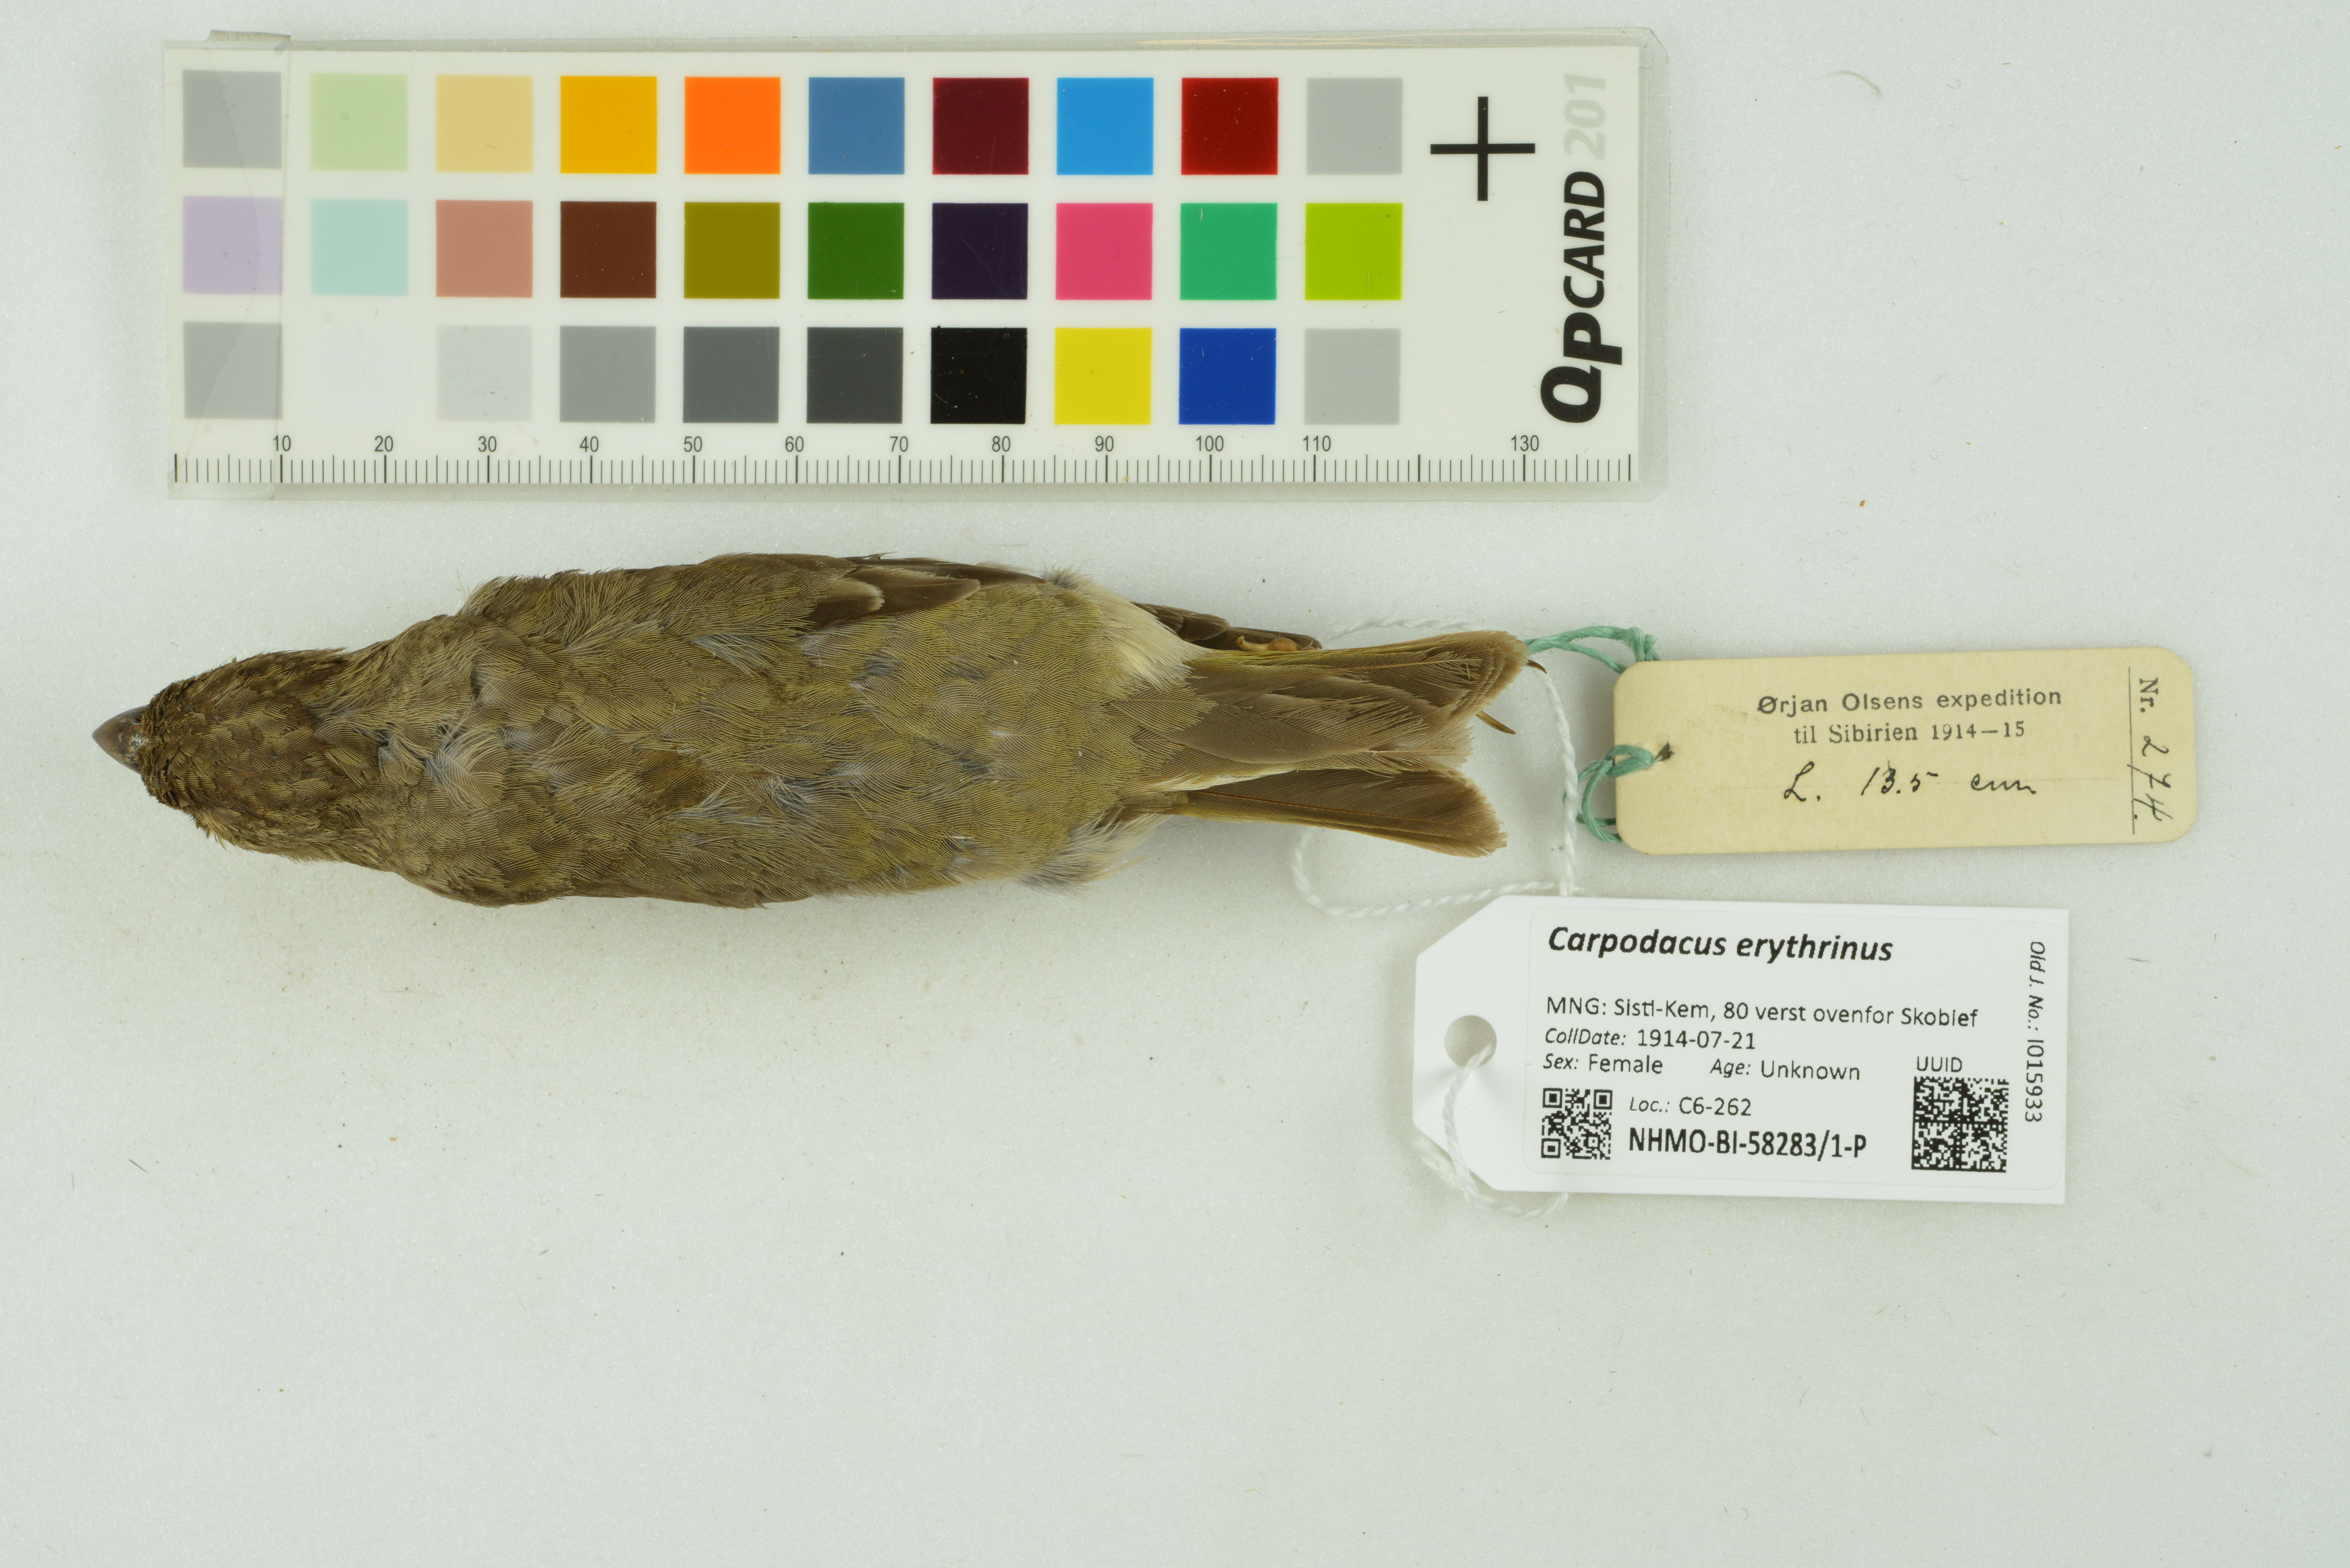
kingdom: Animalia
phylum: Chordata
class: Aves
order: Passeriformes
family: Fringillidae
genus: Carpodacus
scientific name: Carpodacus erythrinus
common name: Common rosefinch
